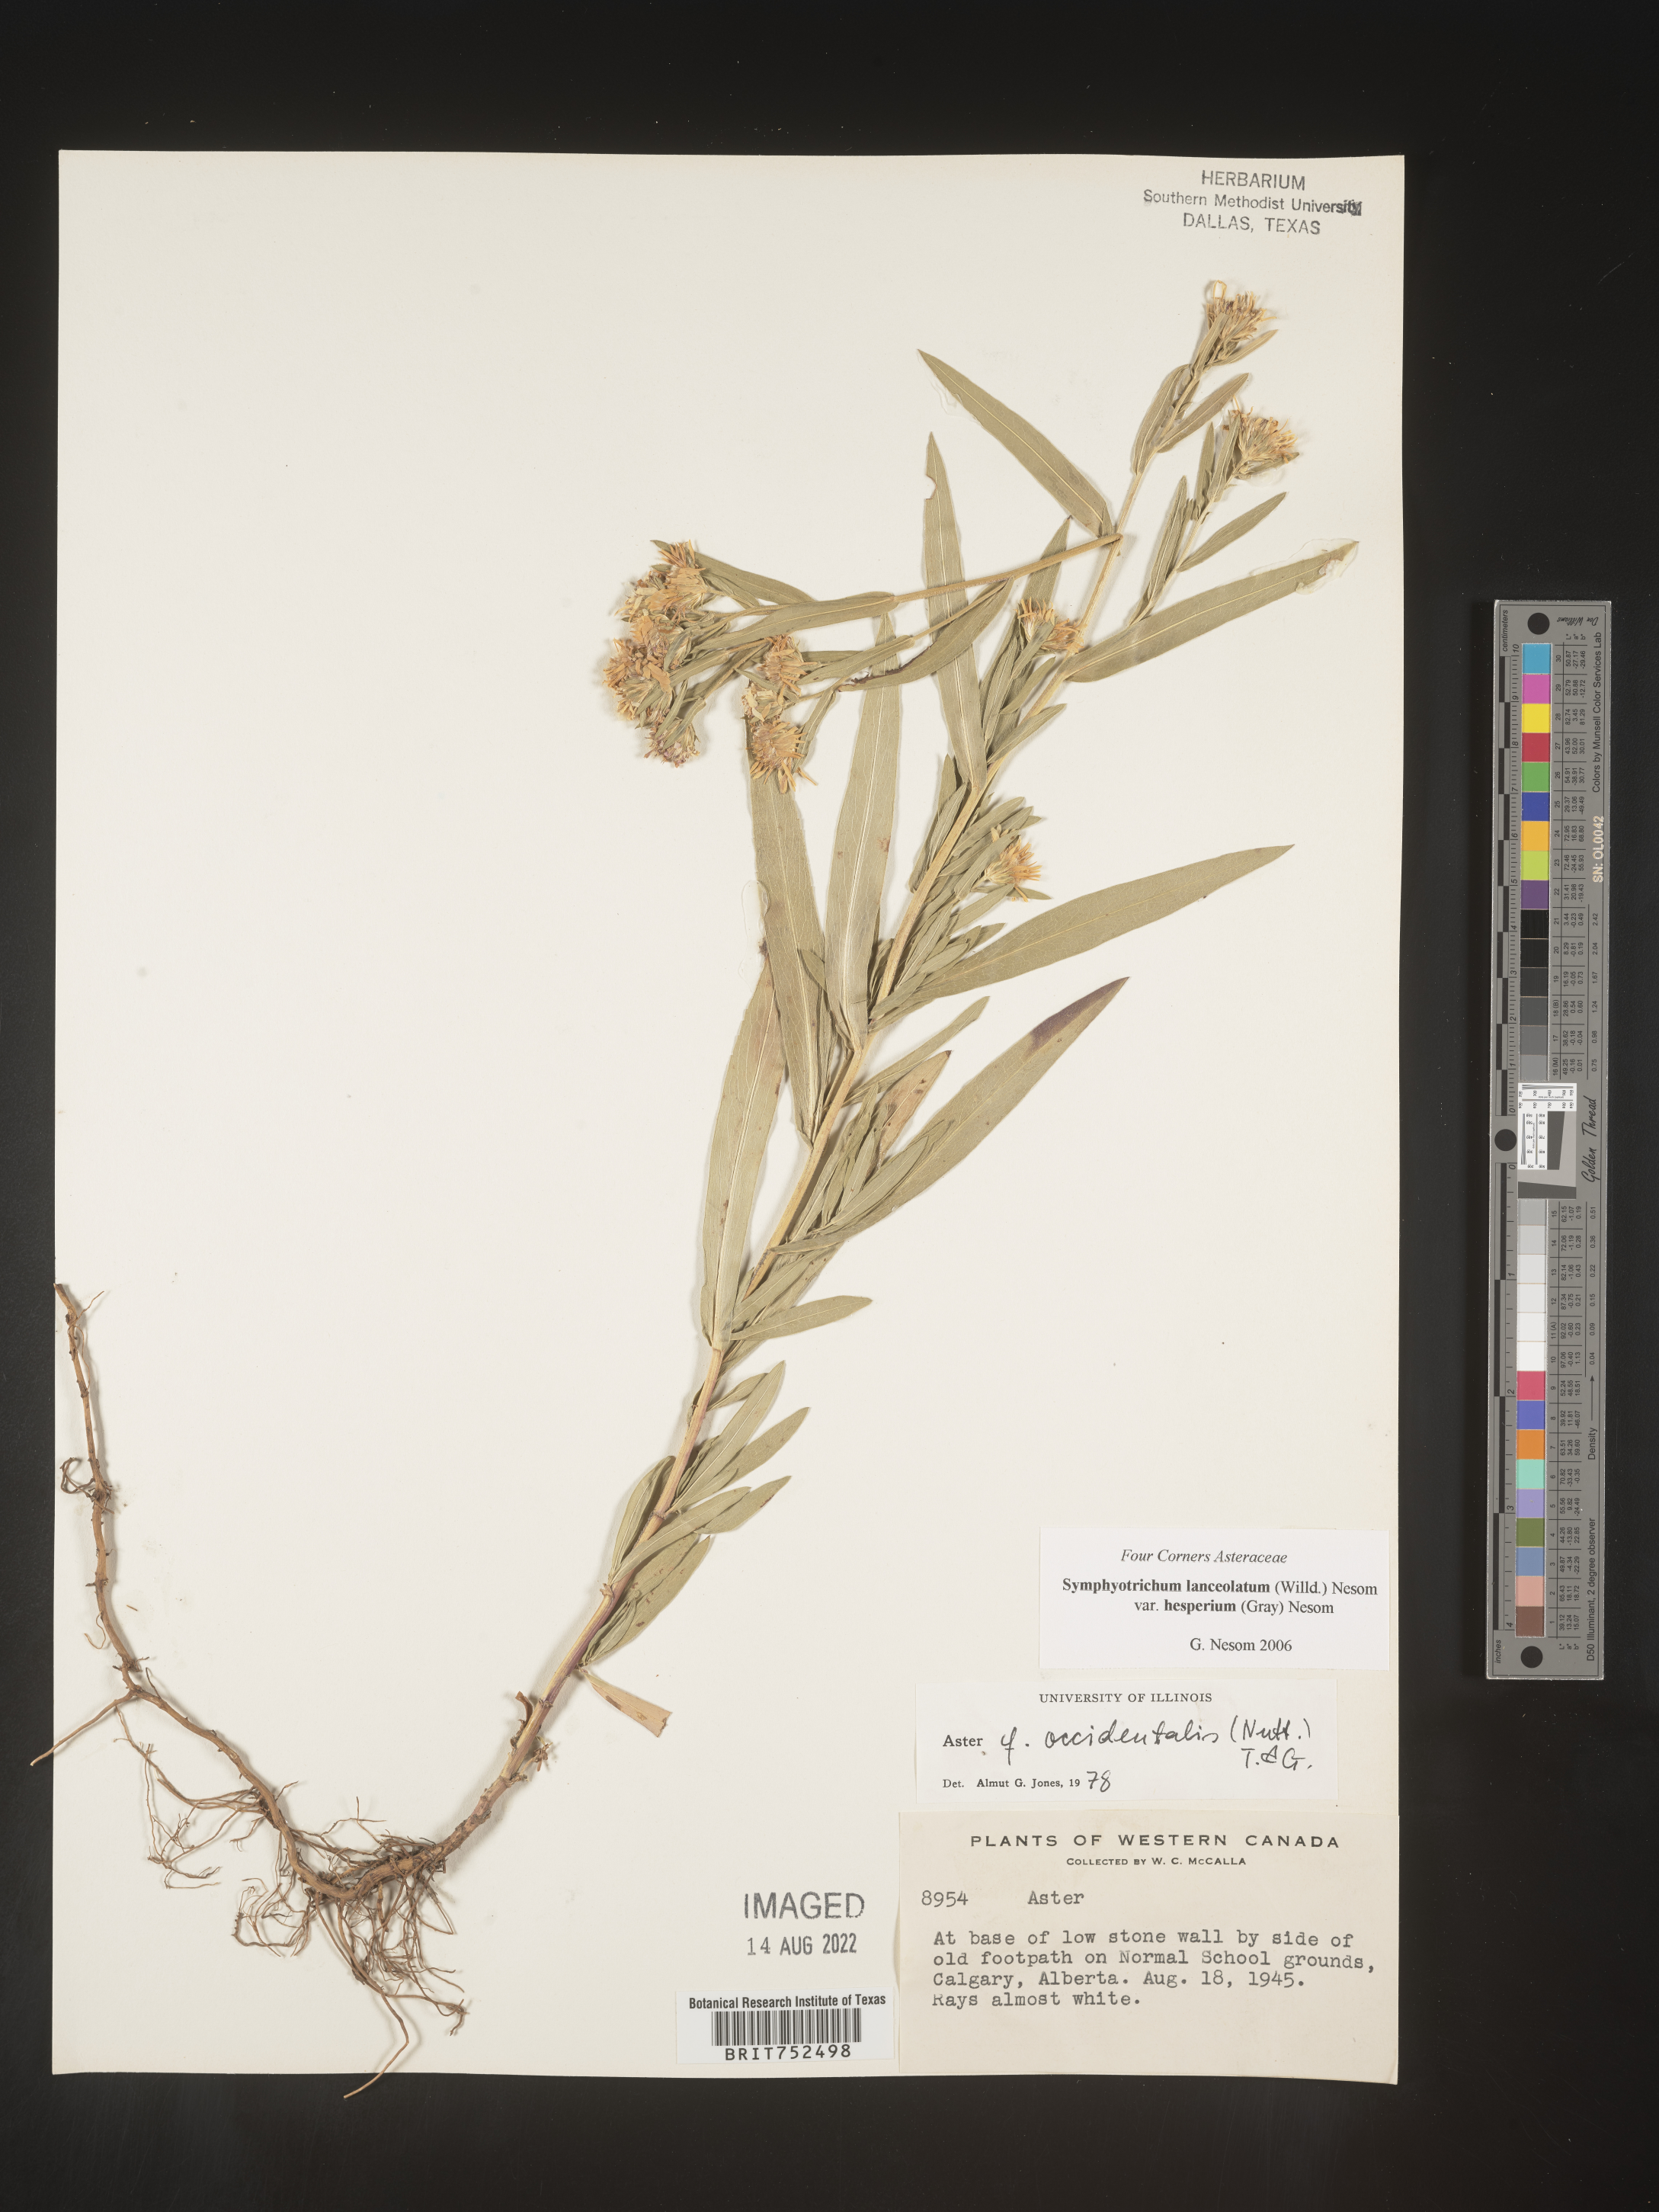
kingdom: Plantae
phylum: Tracheophyta
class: Magnoliopsida
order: Asterales
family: Asteraceae
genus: Symphyotrichum
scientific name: Symphyotrichum lanceolatum
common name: Panicled aster
